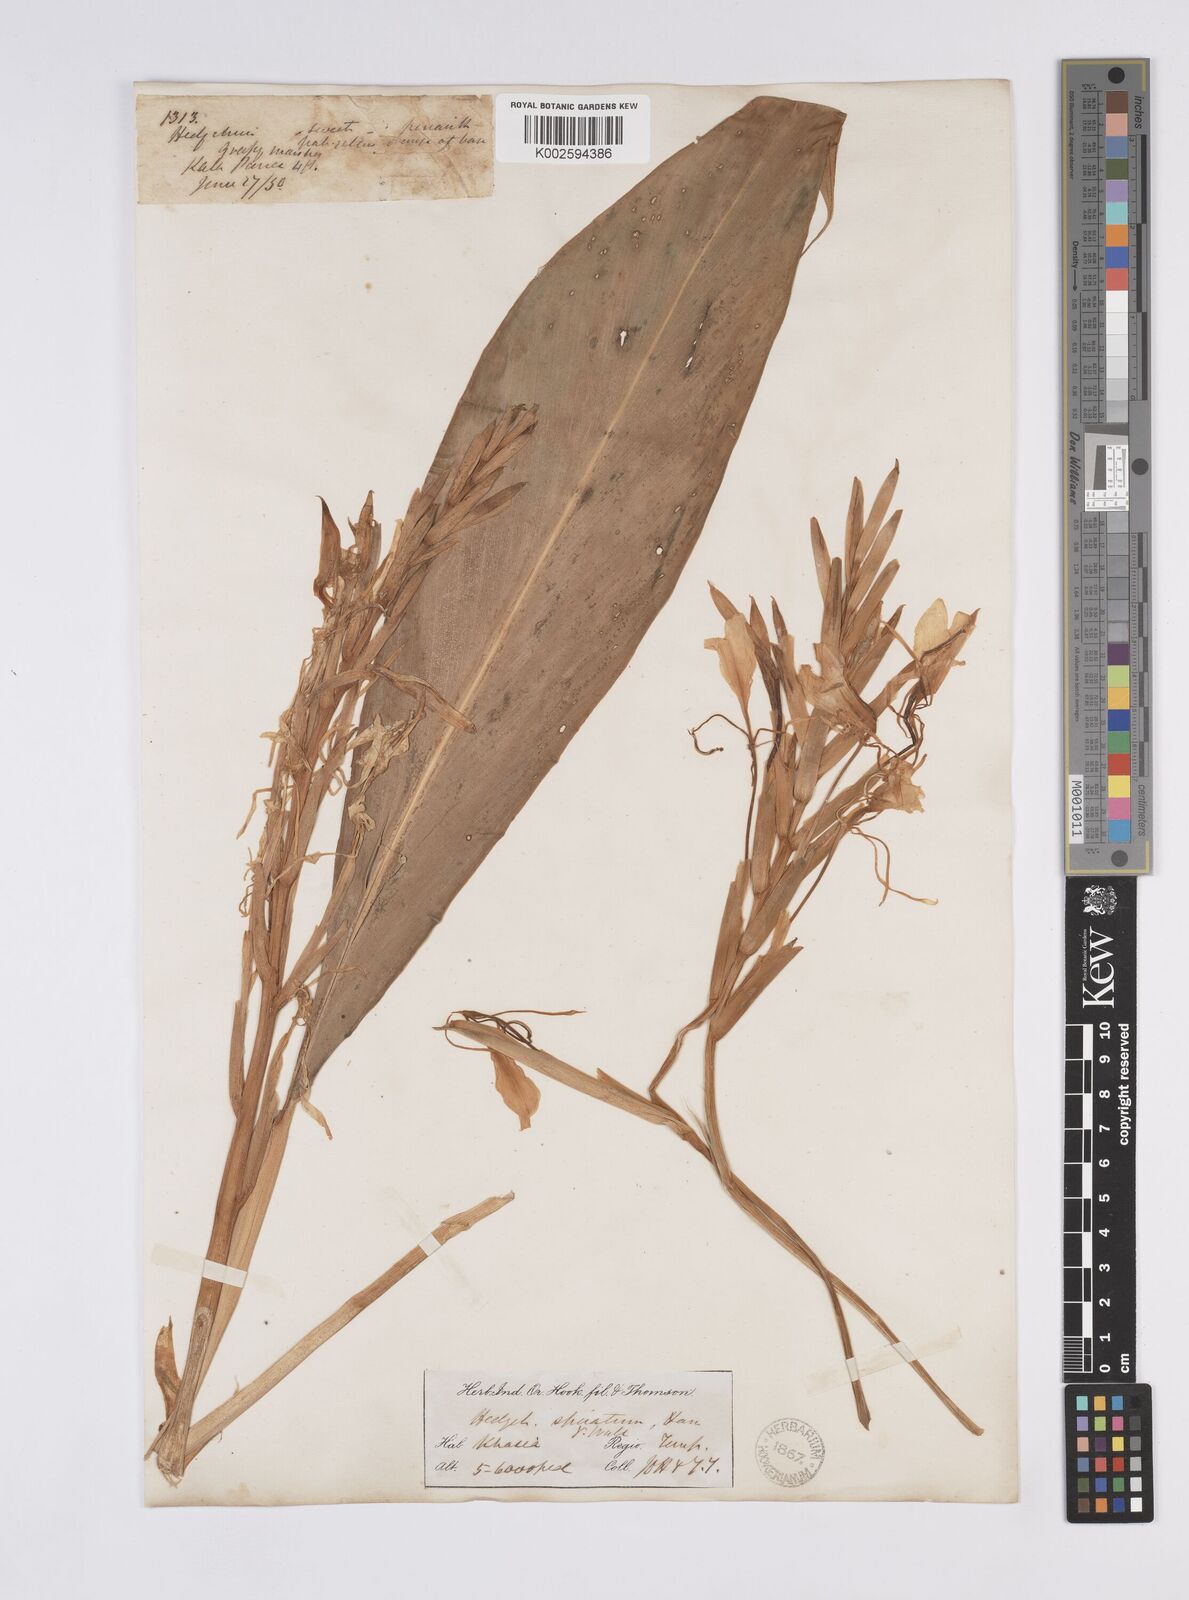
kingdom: Plantae
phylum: Tracheophyta
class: Liliopsida
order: Zingiberales
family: Zingiberaceae
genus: Hedychium
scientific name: Hedychium
